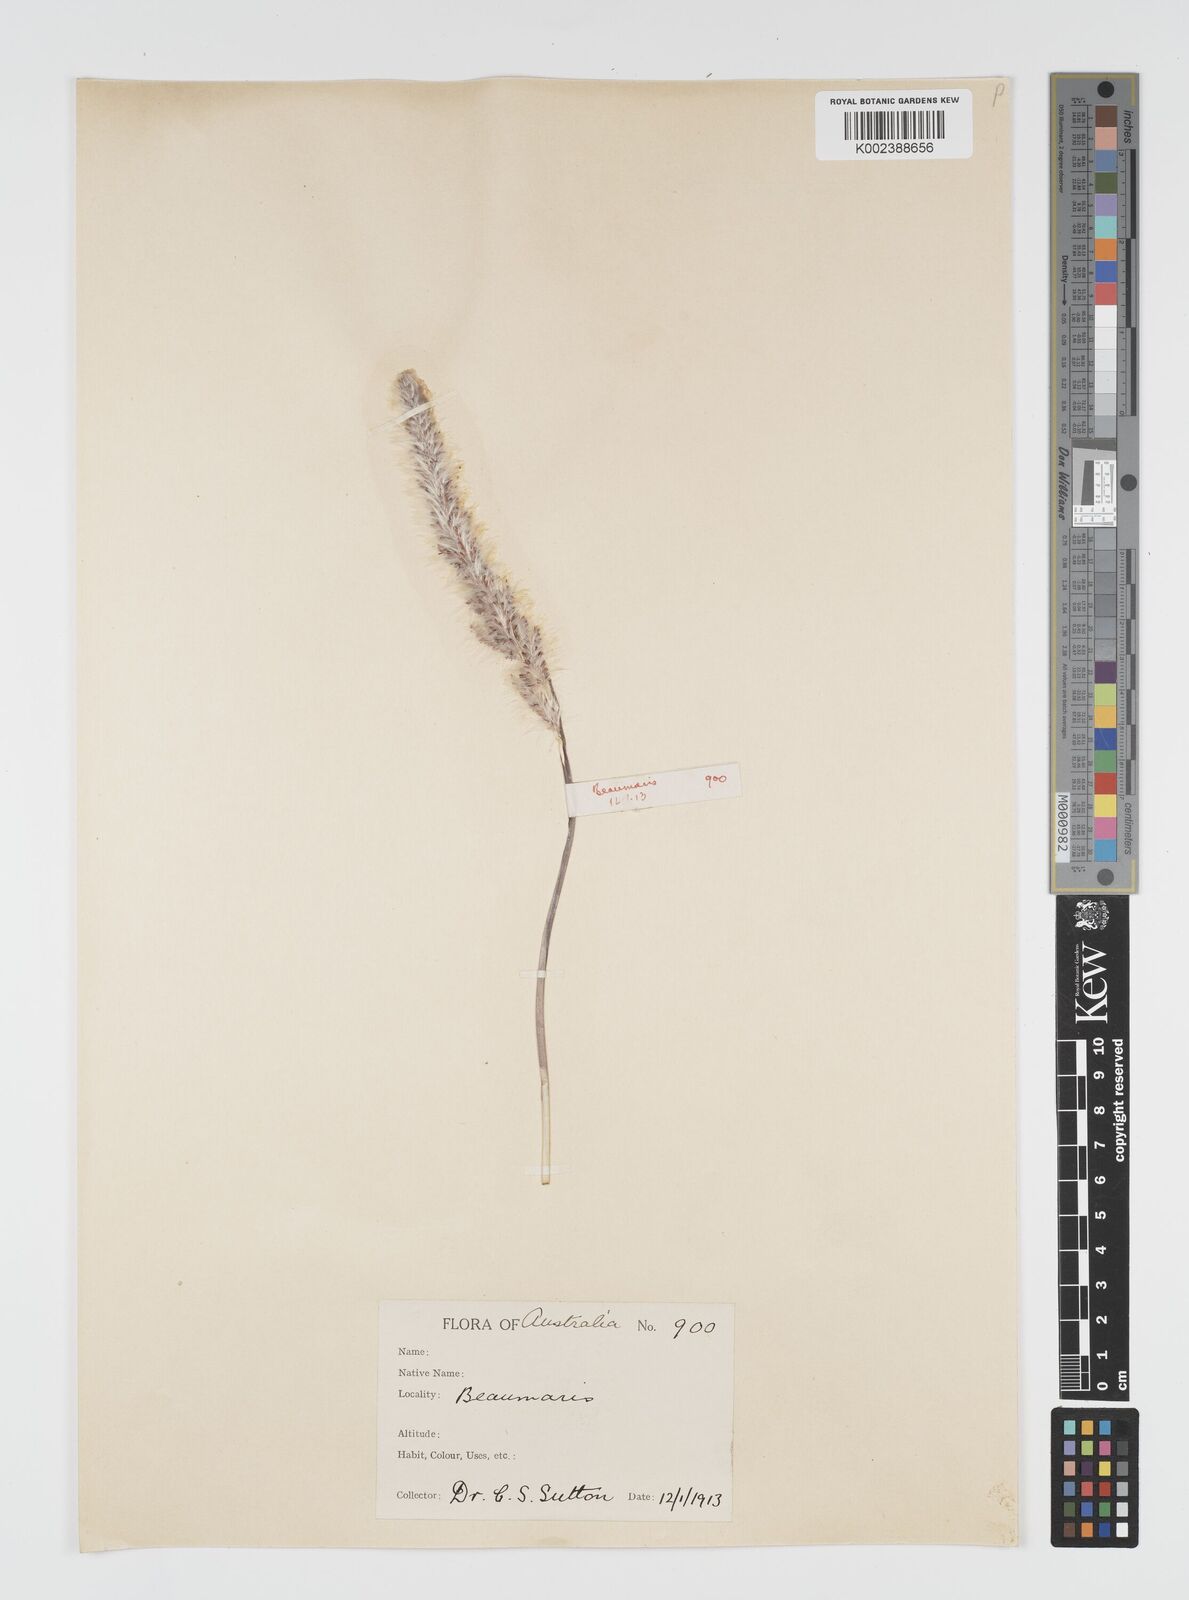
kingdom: Plantae
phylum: Tracheophyta
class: Liliopsida
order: Poales
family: Poaceae
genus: Imperata
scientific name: Imperata cylindrica
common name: Cogongrass
